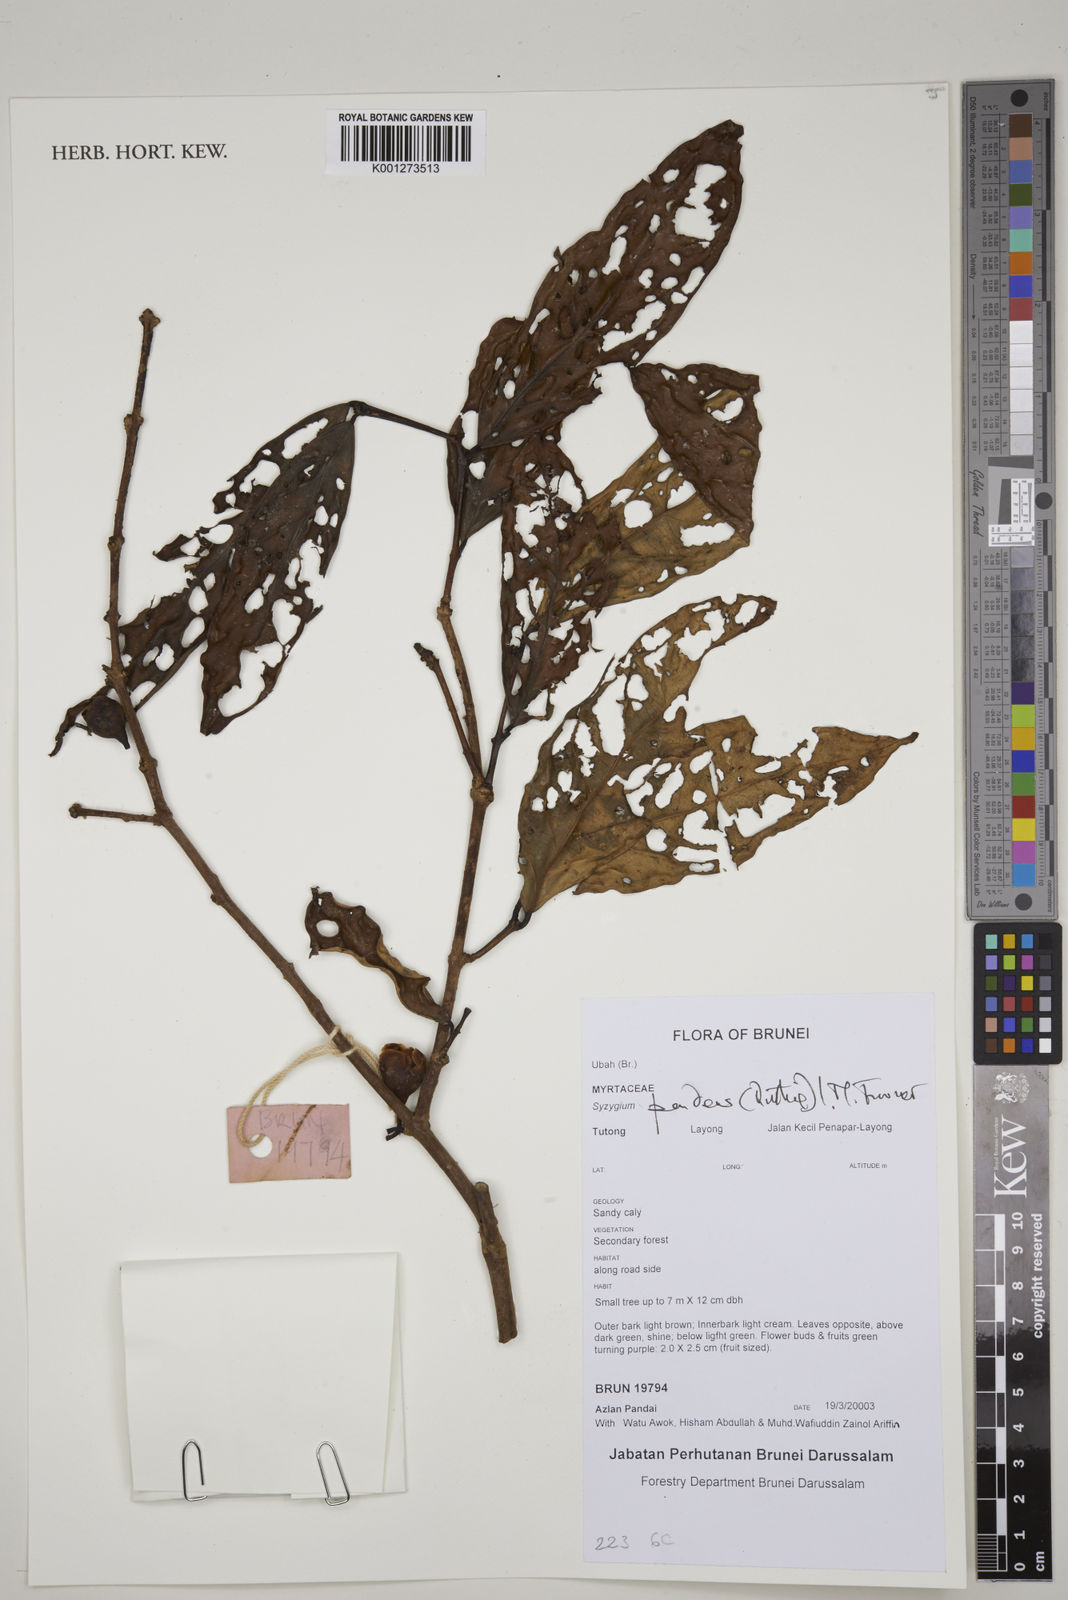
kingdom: Plantae
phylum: Tracheophyta
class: Magnoliopsida
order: Myrtales
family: Myrtaceae
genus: Syzygium
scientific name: Syzygium pendens
